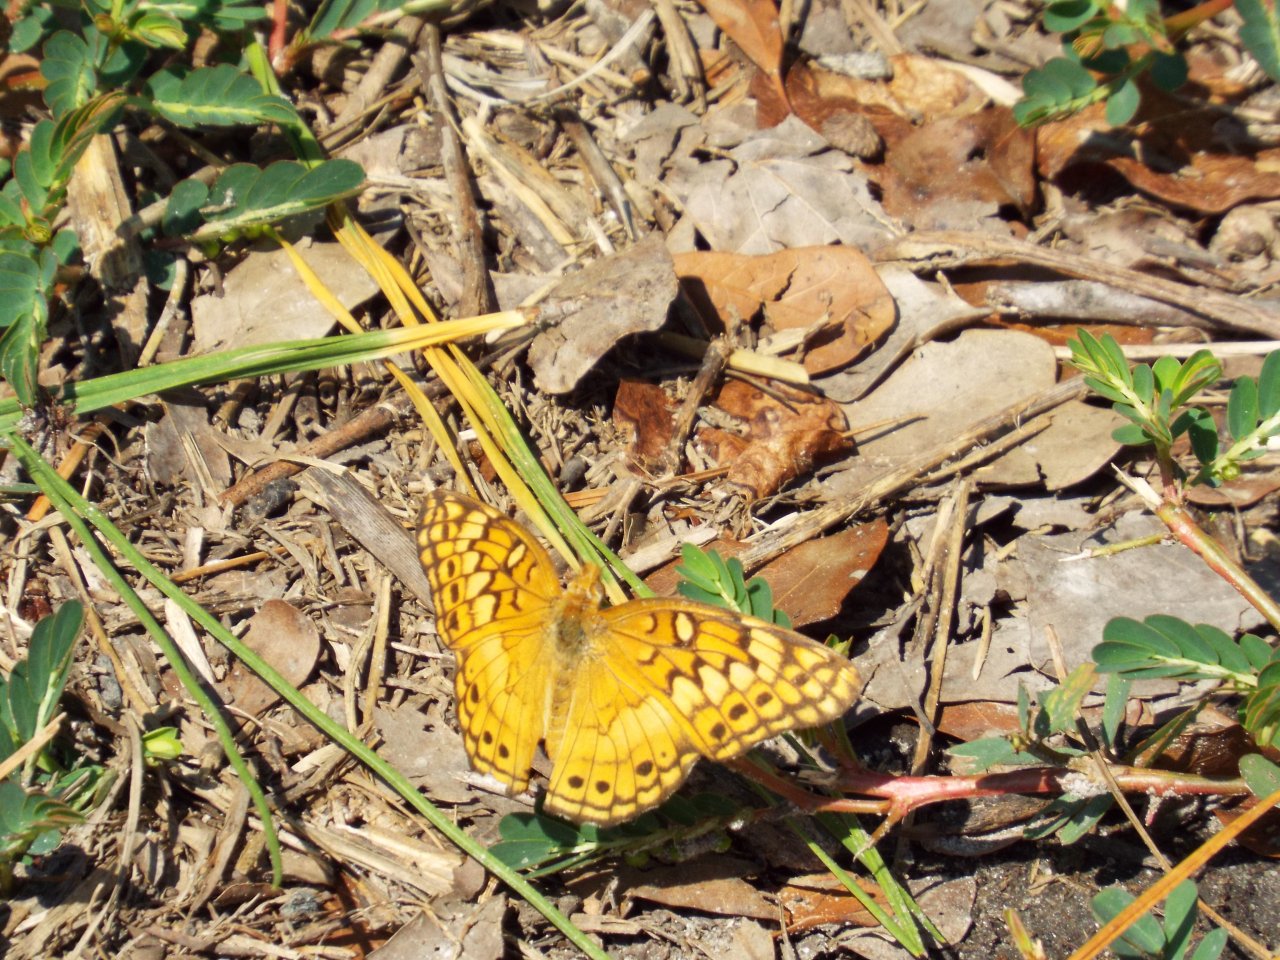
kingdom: Animalia
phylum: Arthropoda
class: Insecta
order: Lepidoptera
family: Nymphalidae
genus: Euptoieta
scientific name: Euptoieta claudia
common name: Variegated Fritillary
